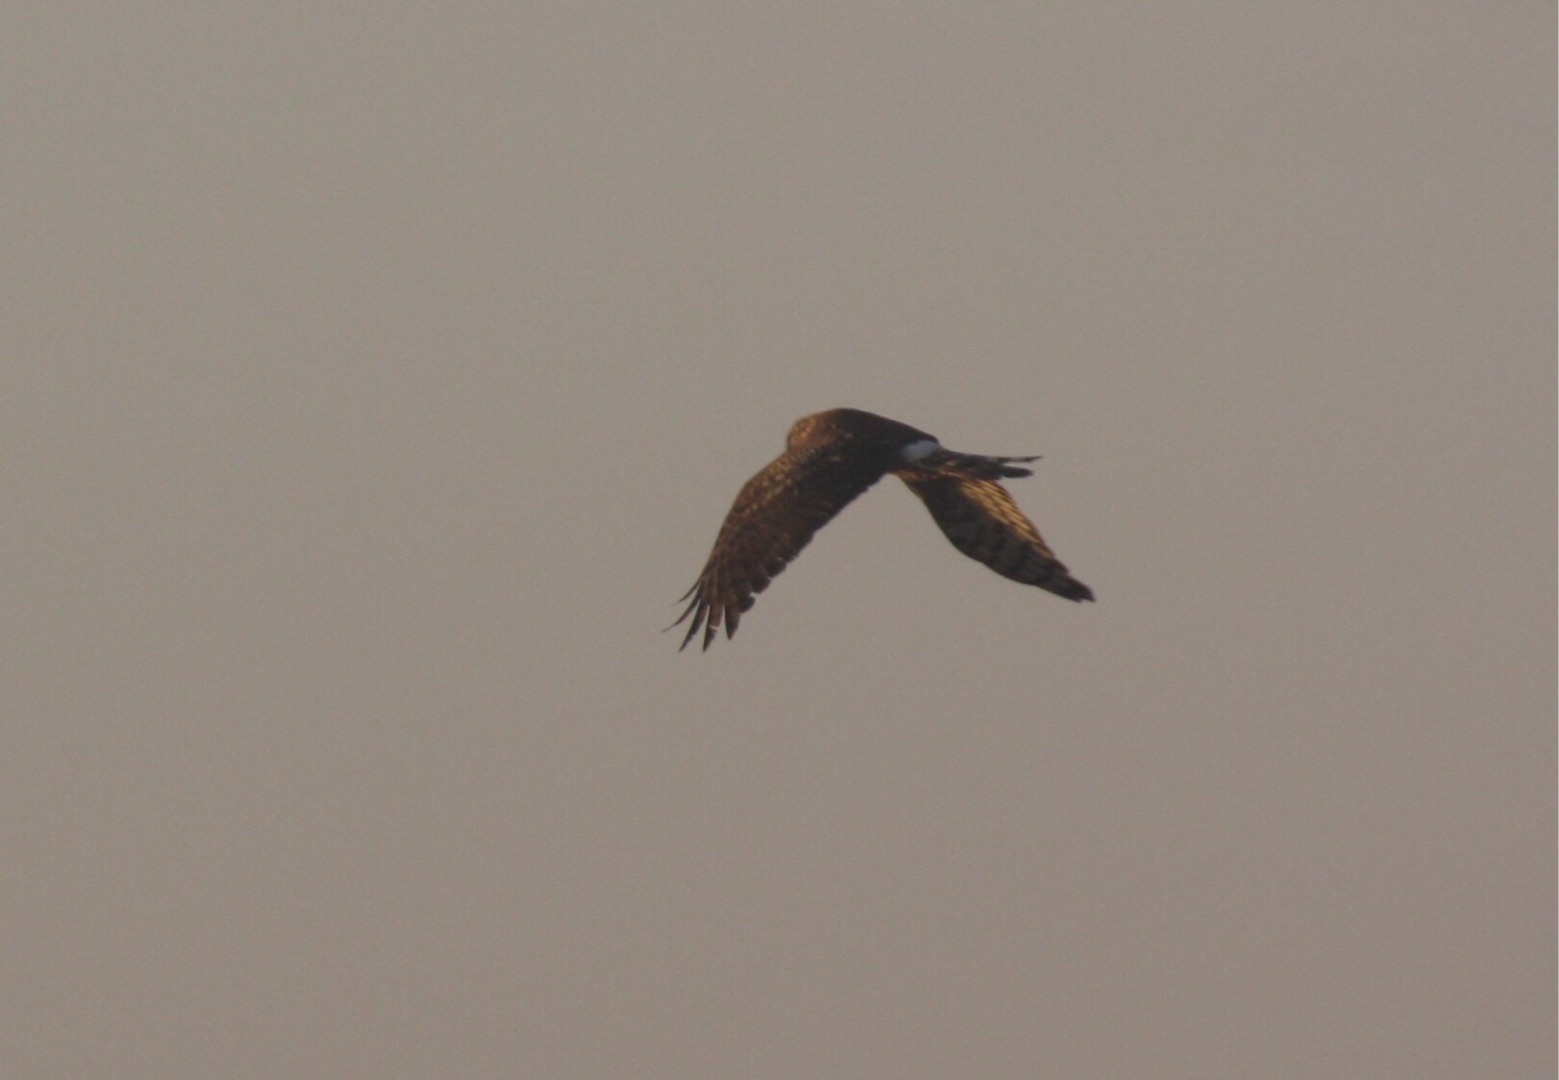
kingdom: Animalia
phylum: Chordata
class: Aves
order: Accipitriformes
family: Accipitridae
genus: Circus
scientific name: Circus cyaneus
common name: Blå kærhøg
